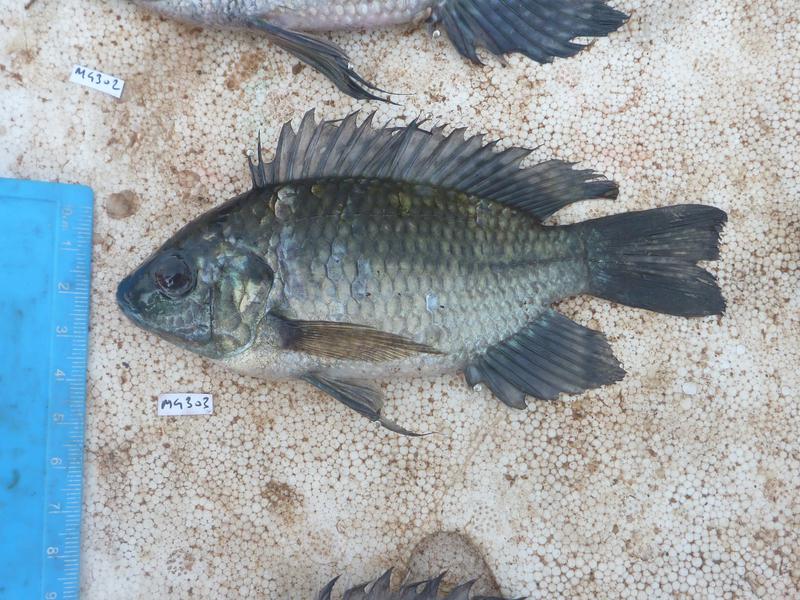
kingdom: Animalia
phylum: Chordata
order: Perciformes
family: Cichlidae
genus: Oreochromis
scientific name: Oreochromis leucostictus
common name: Blue spotted tilapia
